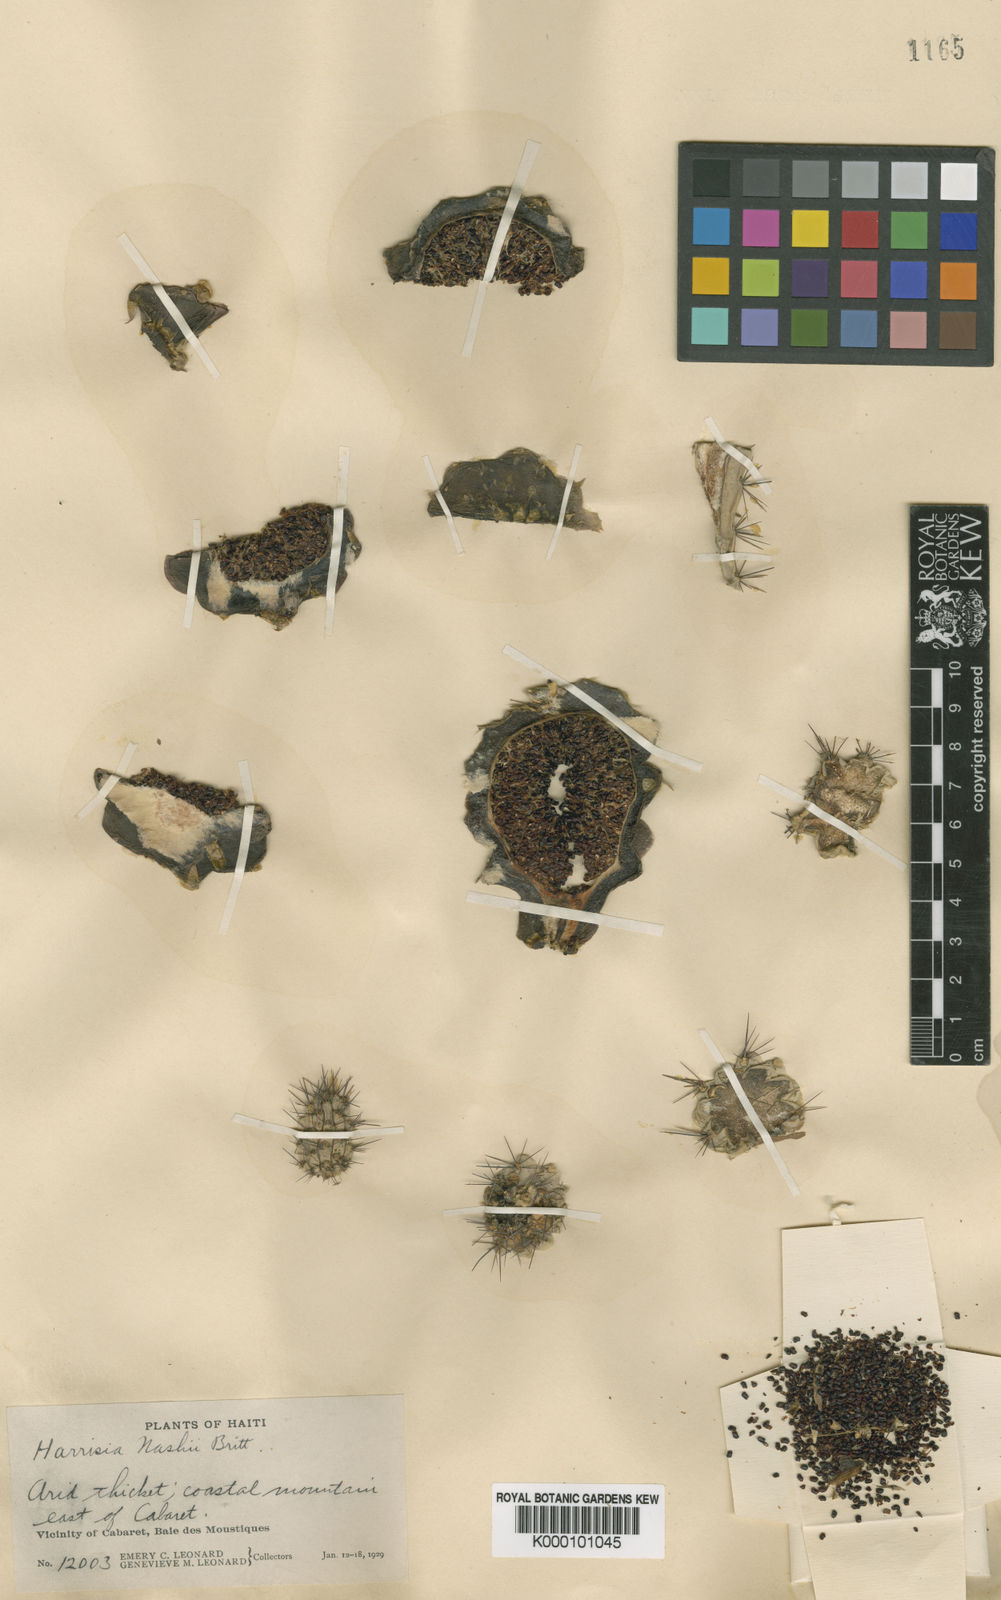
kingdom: Plantae
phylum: Tracheophyta
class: Magnoliopsida
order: Caryophyllales
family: Cactaceae
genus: Harrisia
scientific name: Harrisia divaricata
